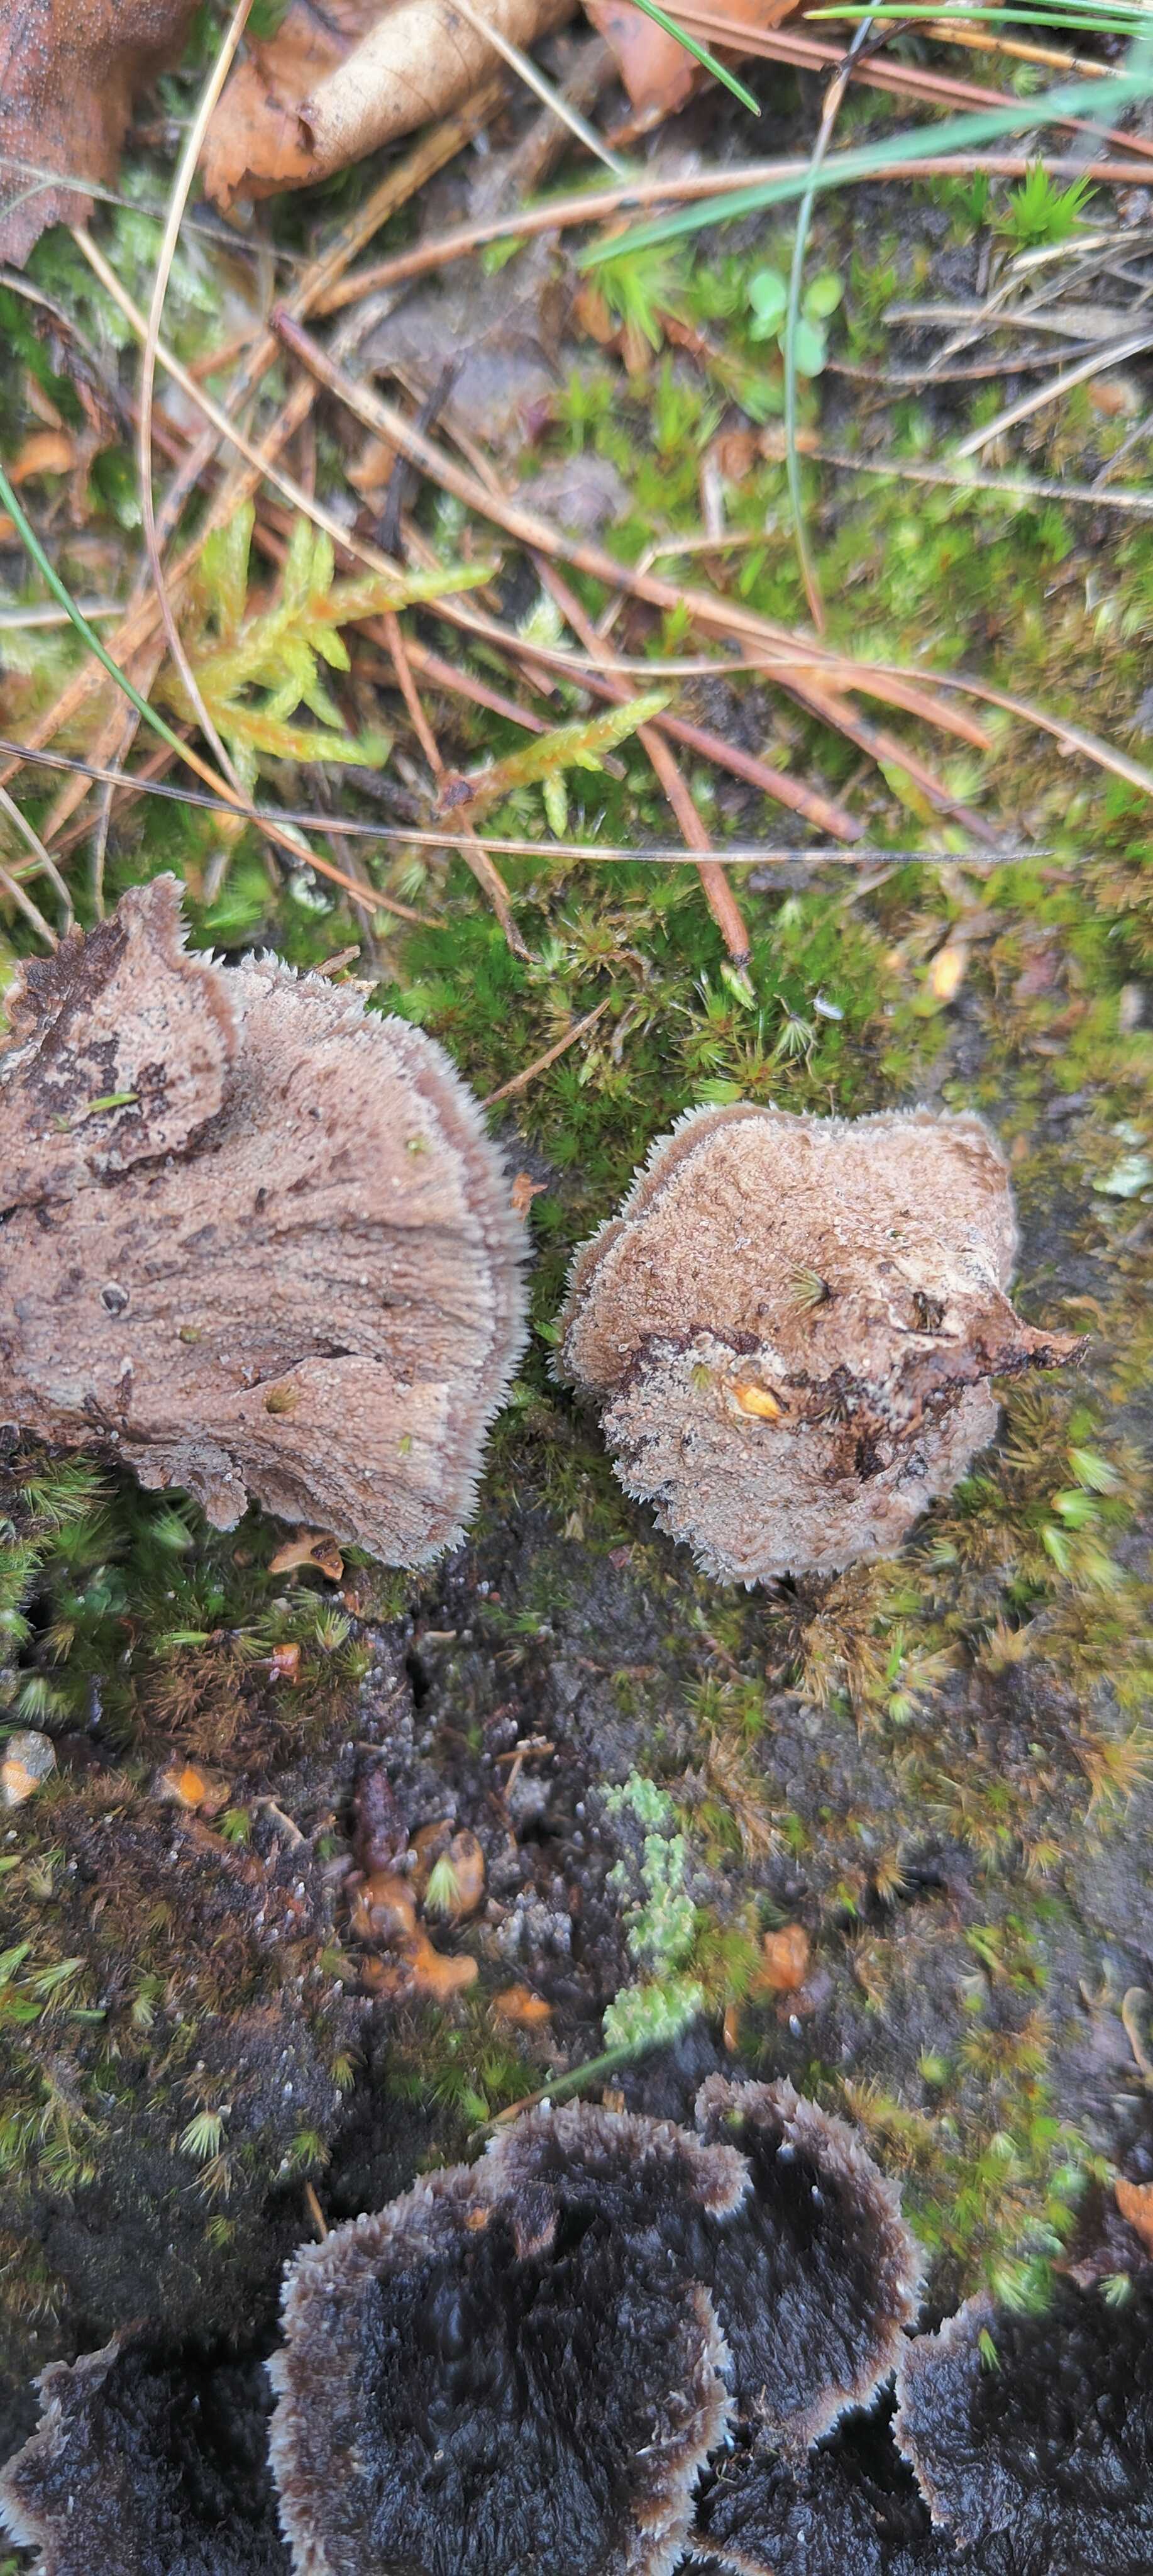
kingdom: Fungi
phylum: Basidiomycota
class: Agaricomycetes
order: Thelephorales
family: Thelephoraceae
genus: Thelephora
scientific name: Thelephora terrestris
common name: fliget frynsesvamp
